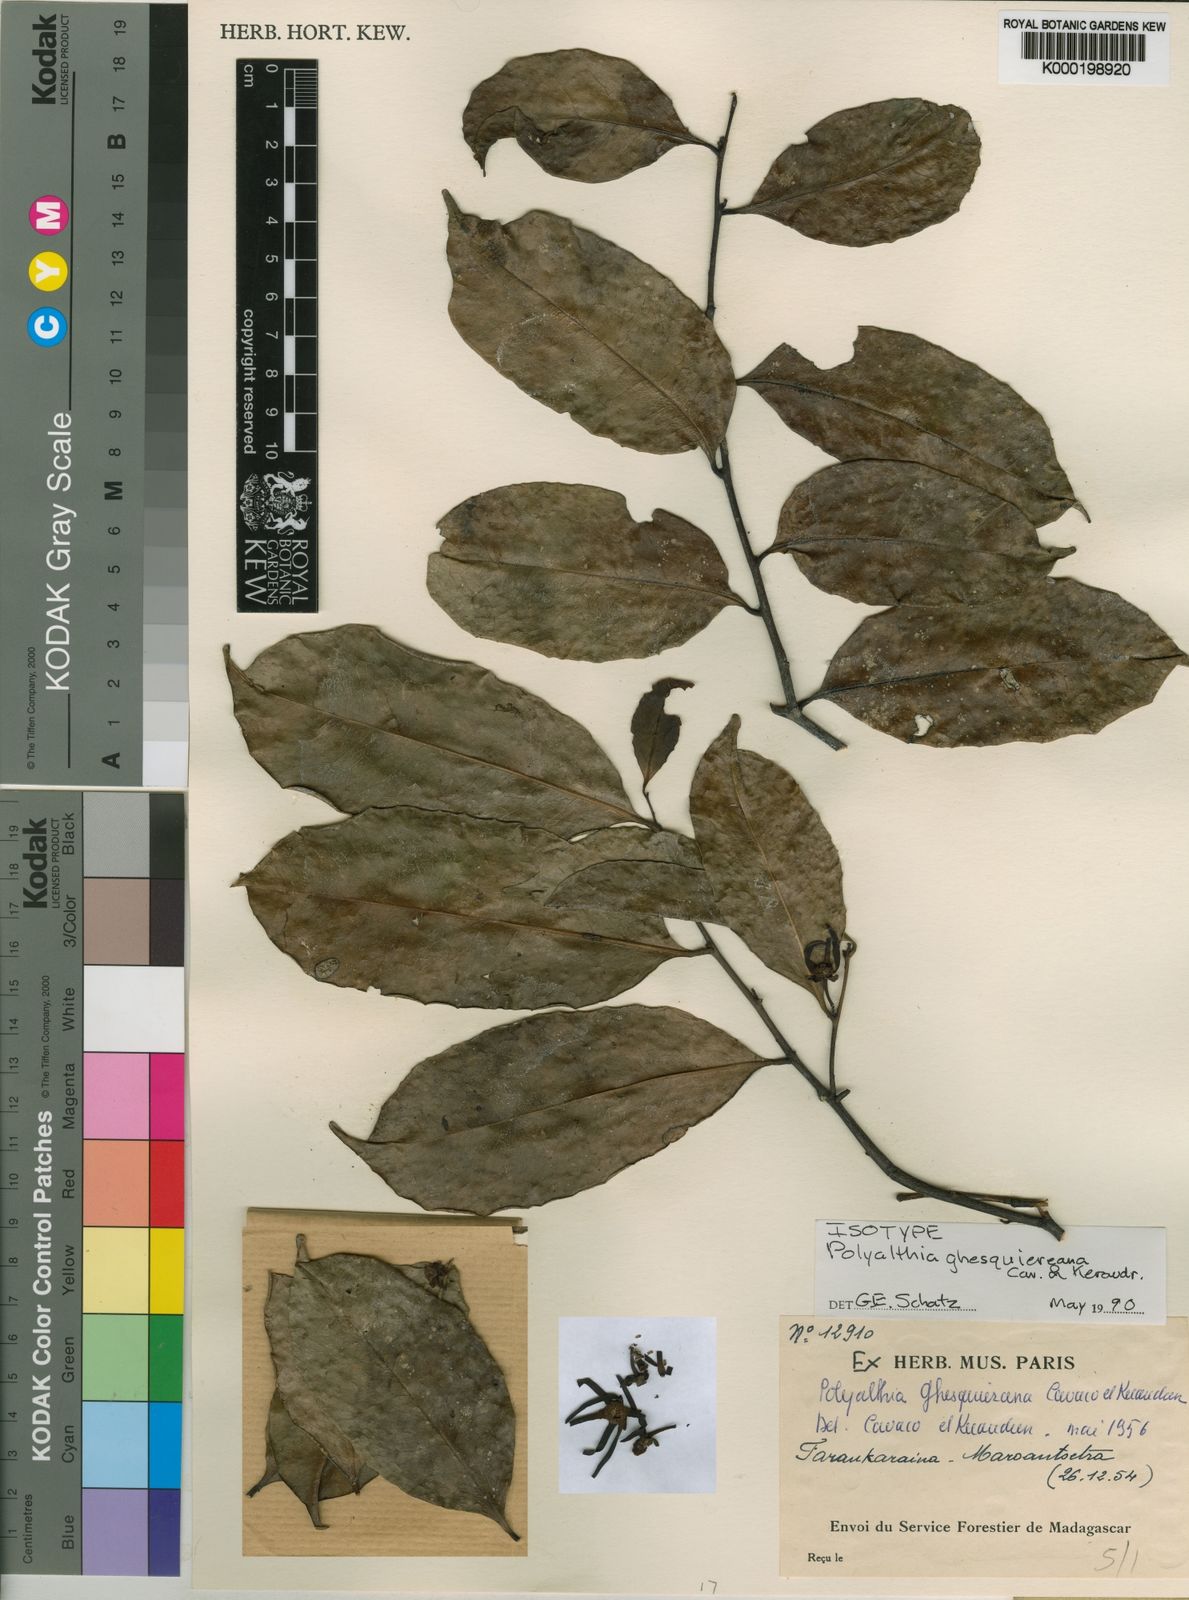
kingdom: Plantae
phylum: Tracheophyta
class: Magnoliopsida
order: Magnoliales
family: Annonaceae
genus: Fenerivia
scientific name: Fenerivia ghesquiereana
